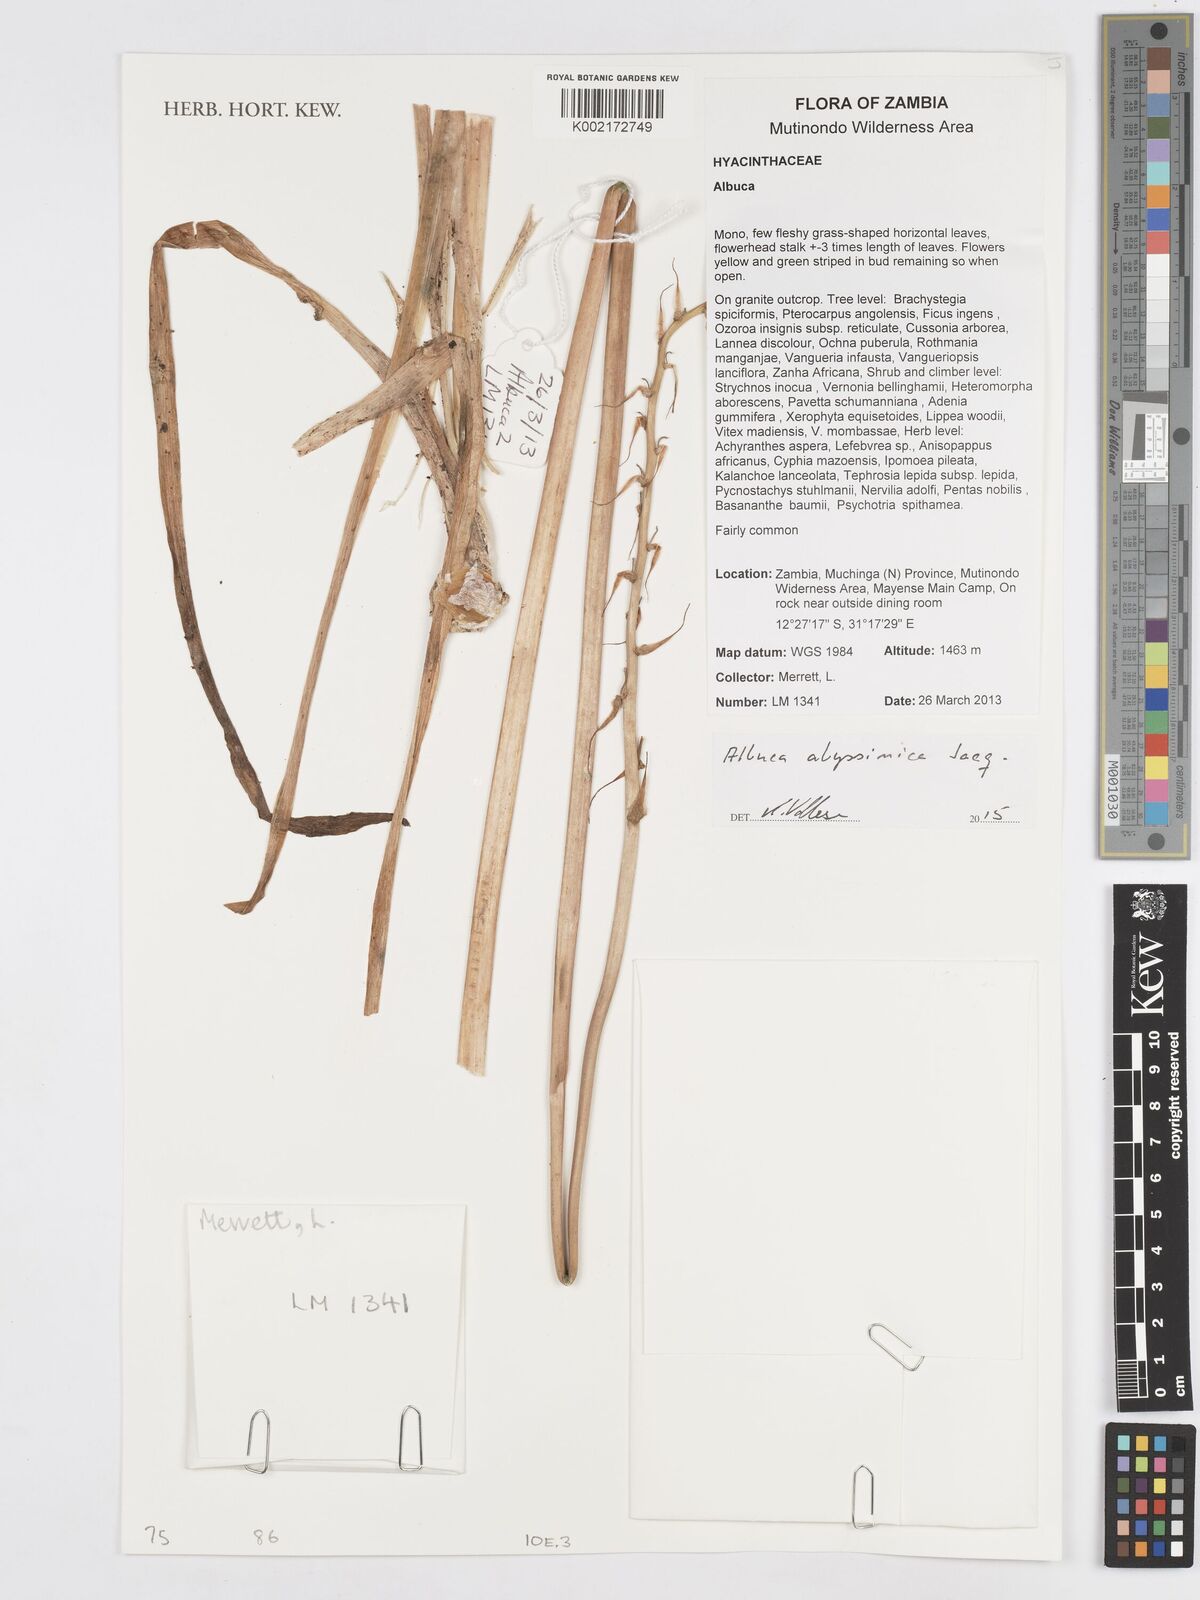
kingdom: Plantae
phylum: Tracheophyta
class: Liliopsida
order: Asparagales
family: Asparagaceae
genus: Albuca
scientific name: Albuca abyssinica
